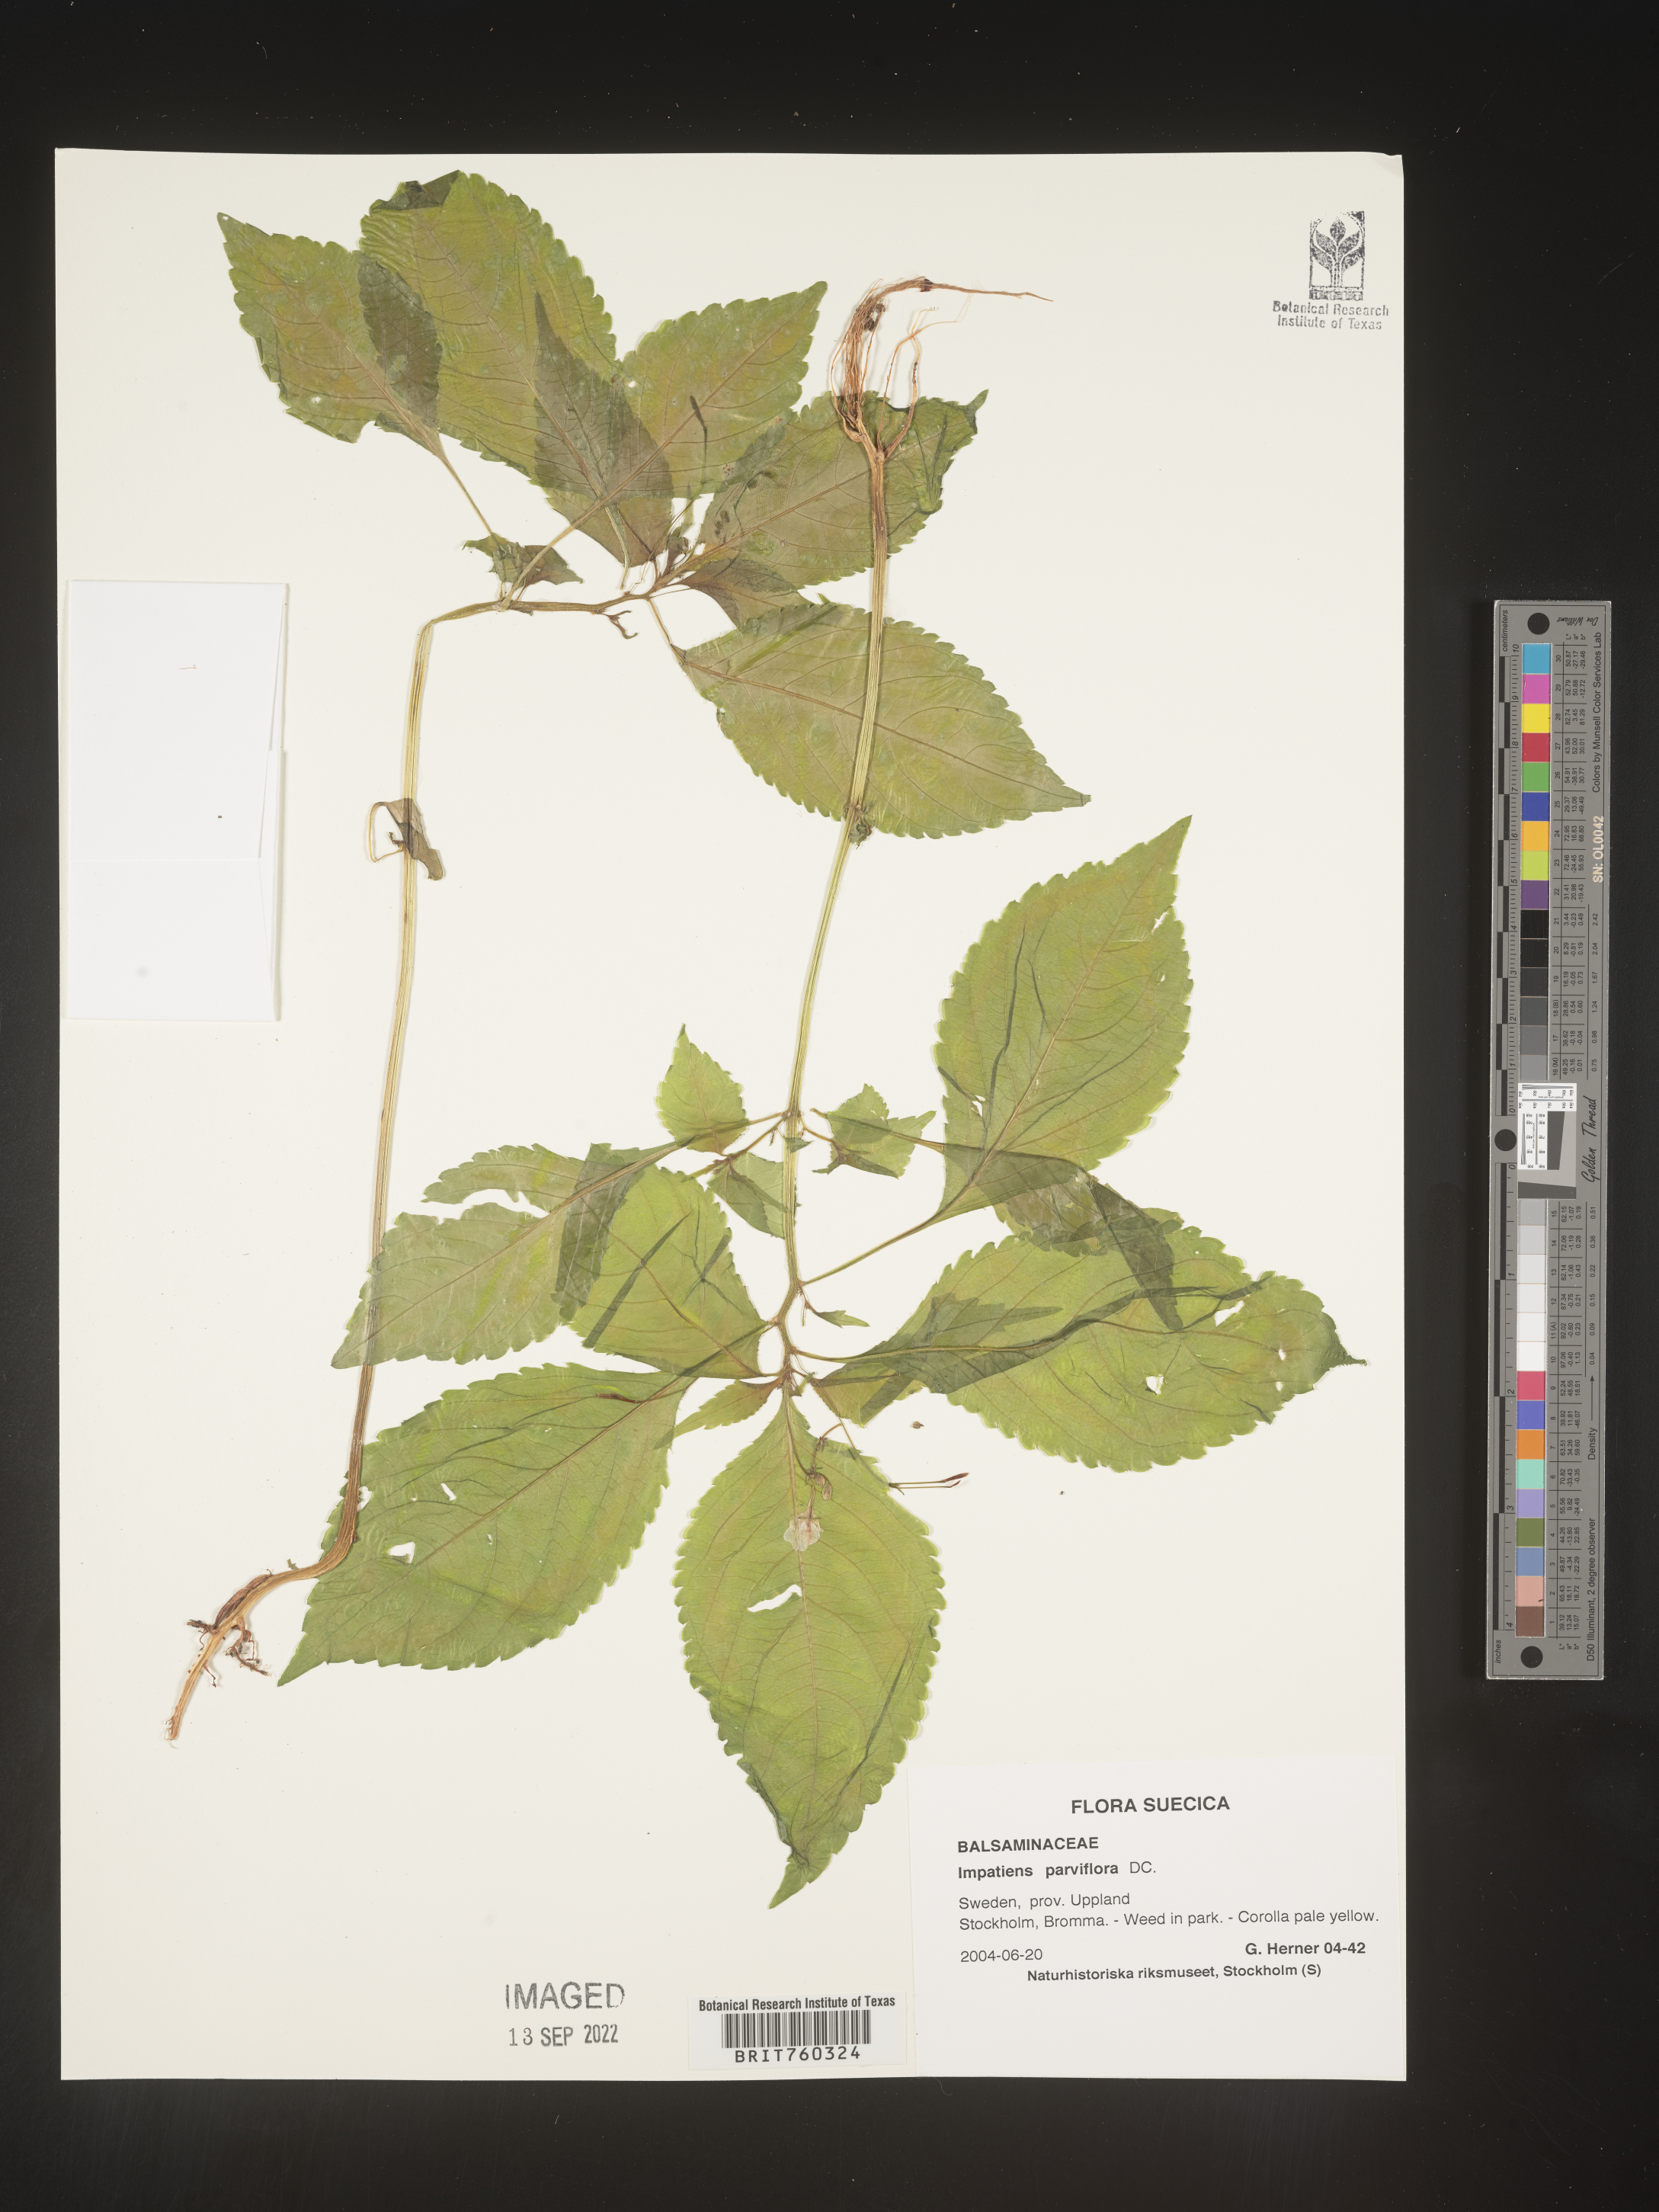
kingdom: Plantae
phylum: Tracheophyta
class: Magnoliopsida
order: Ericales
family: Balsaminaceae
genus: Impatiens
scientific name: Impatiens
